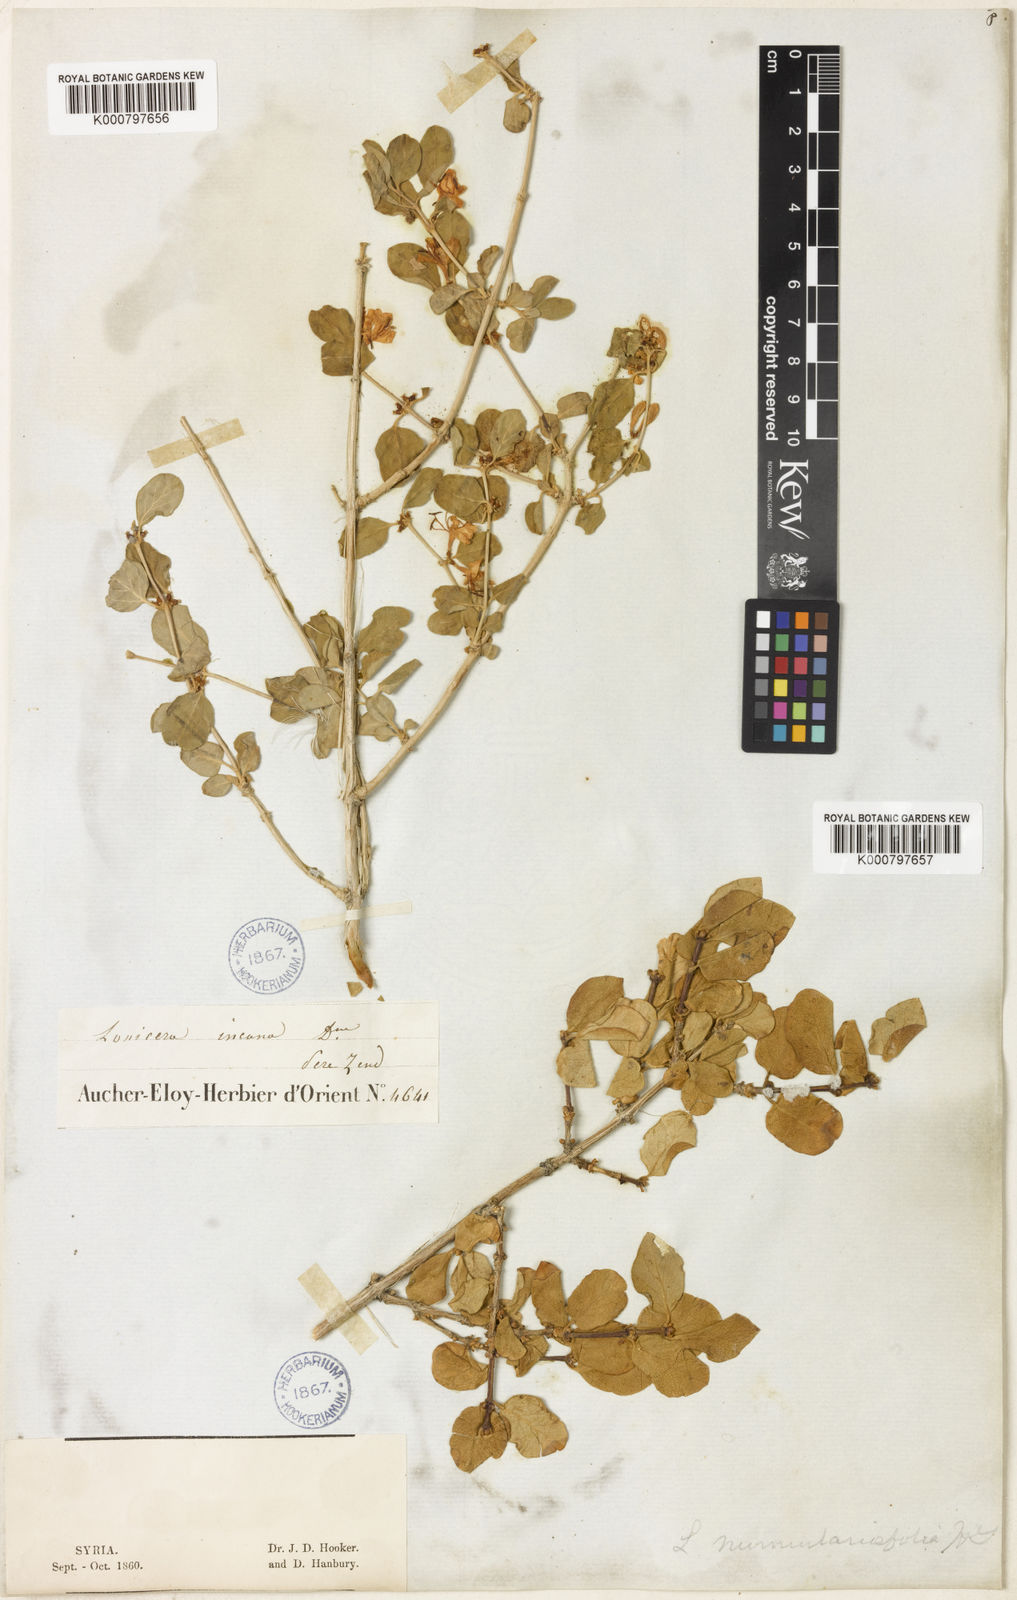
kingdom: Plantae
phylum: Tracheophyta
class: Magnoliopsida
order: Dipsacales
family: Caprifoliaceae
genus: Lonicera
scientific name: Lonicera nummulariifolia
